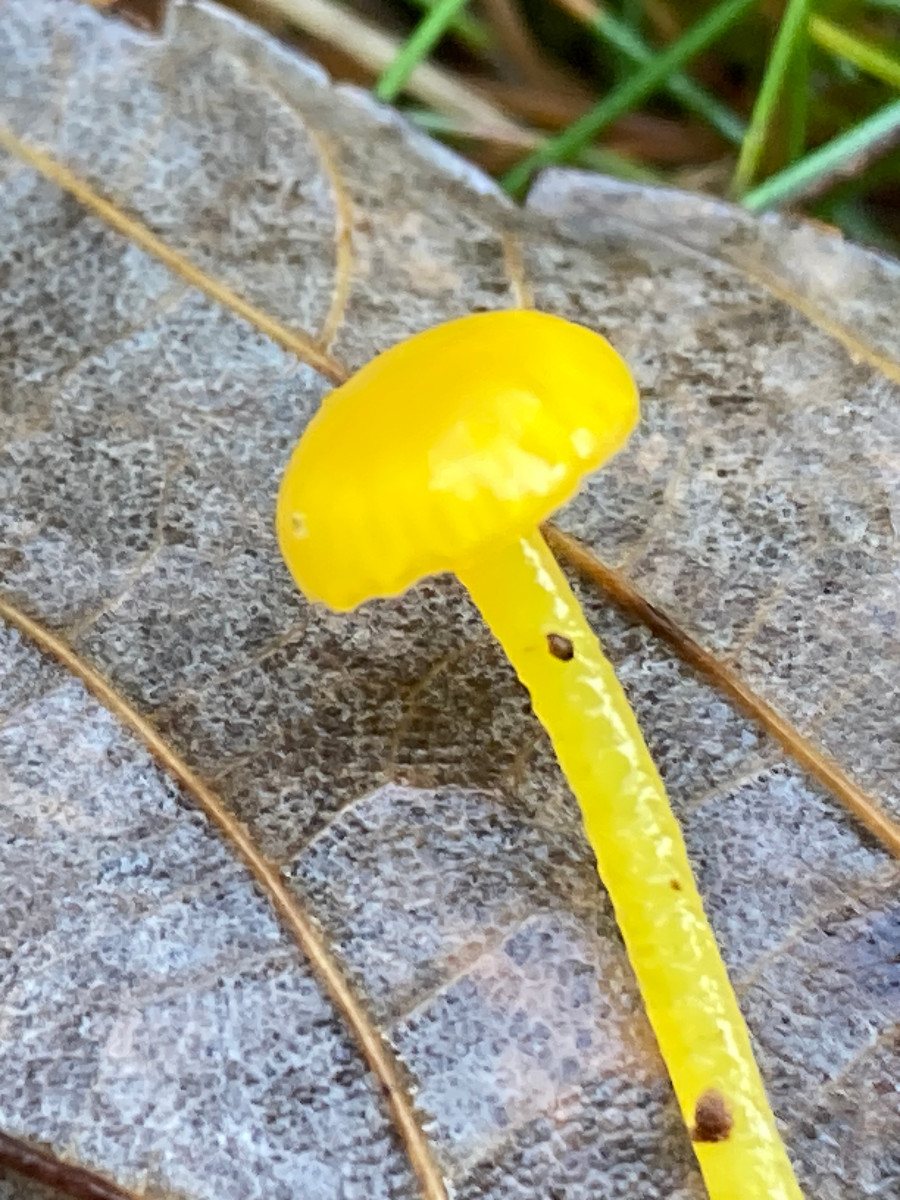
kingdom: Fungi
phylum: Basidiomycota
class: Agaricomycetes
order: Agaricales
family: Hygrophoraceae
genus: Gloioxanthomyces
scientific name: Gloioxanthomyces vitellinus
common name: kromgul vokshat
